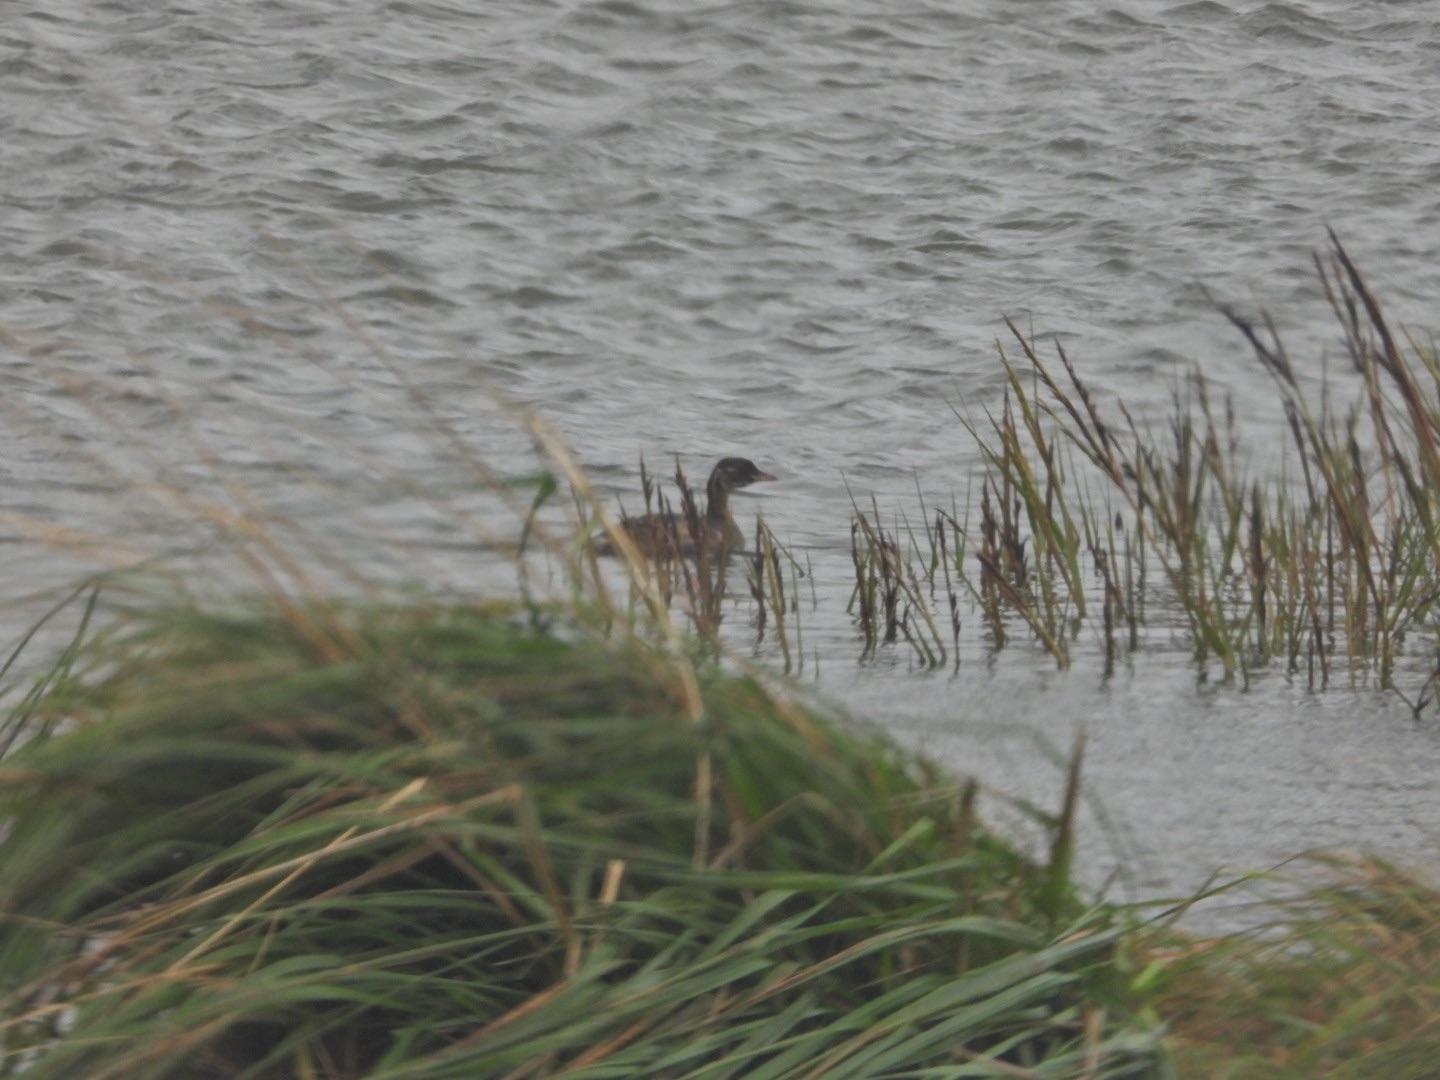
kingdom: Animalia
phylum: Chordata
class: Aves
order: Podicipediformes
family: Podicipedidae
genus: Tachybaptus
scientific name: Tachybaptus ruficollis
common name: Lille lappedykker
